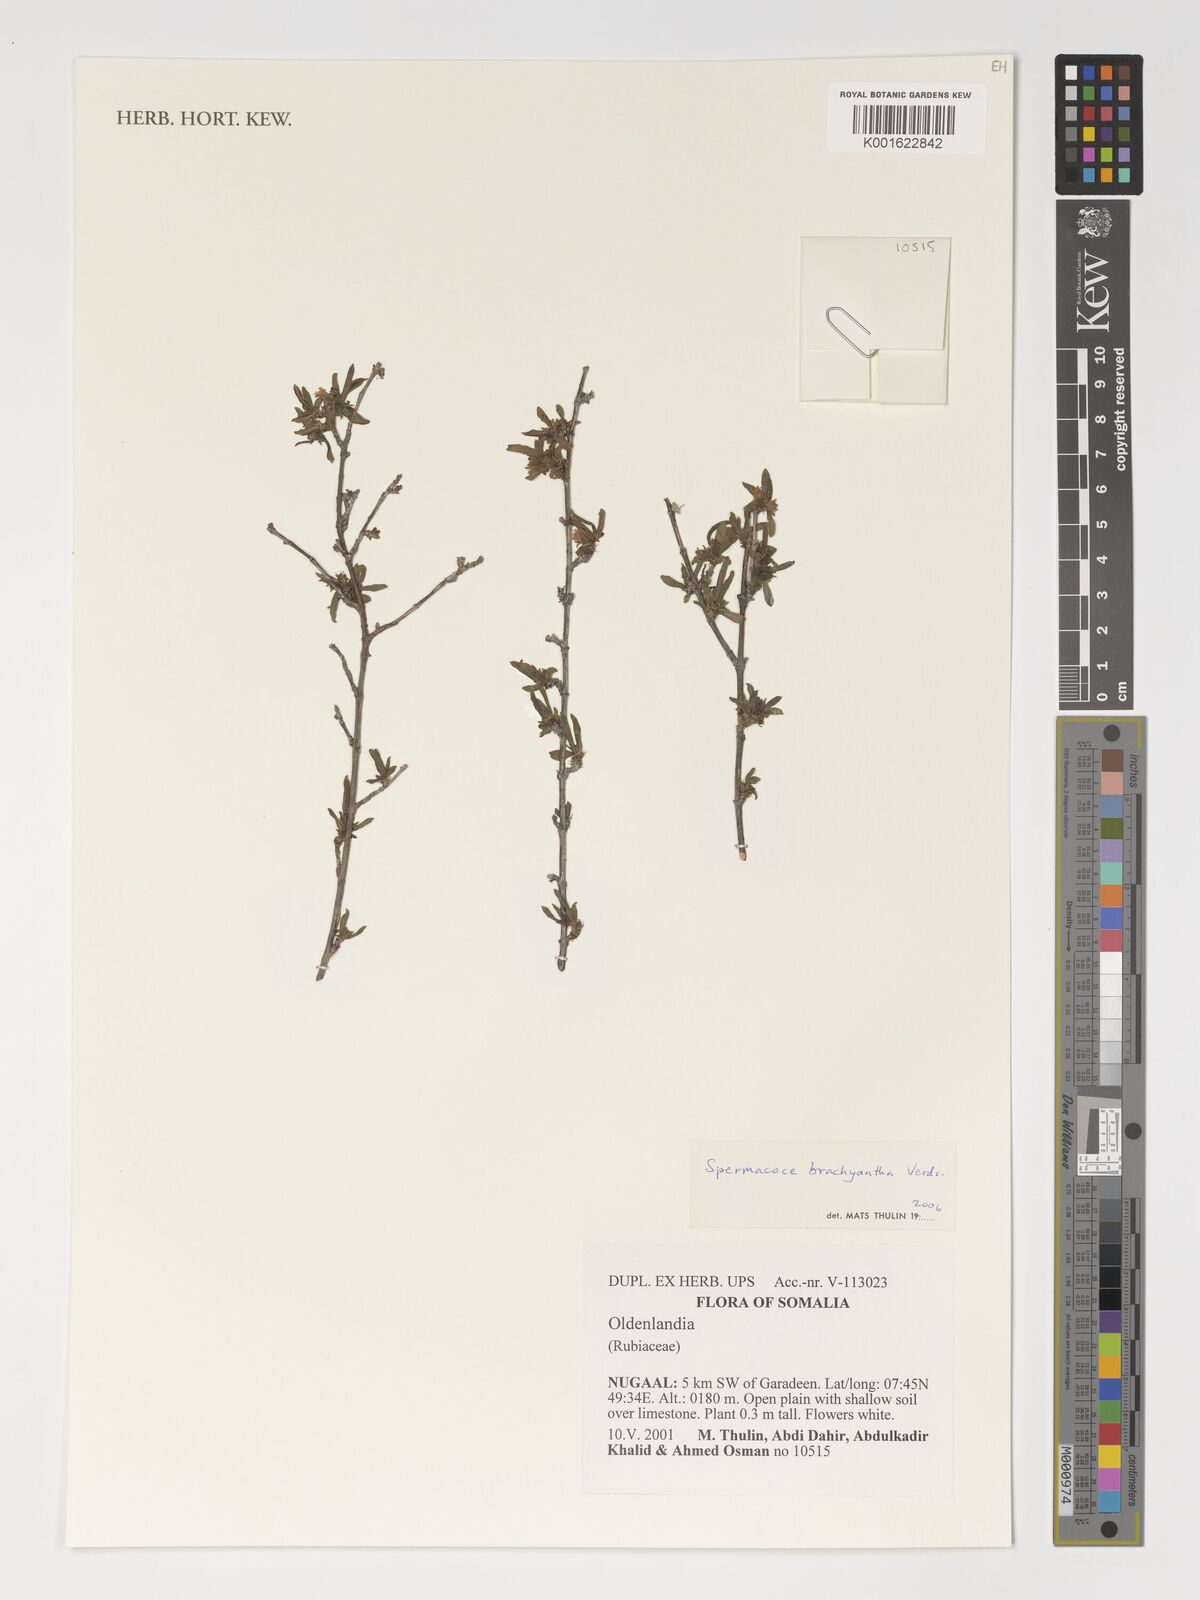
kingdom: Plantae
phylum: Tracheophyta
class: Magnoliopsida
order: Gentianales
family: Rubiaceae
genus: Spermacoce
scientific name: Spermacoce brachyantha
